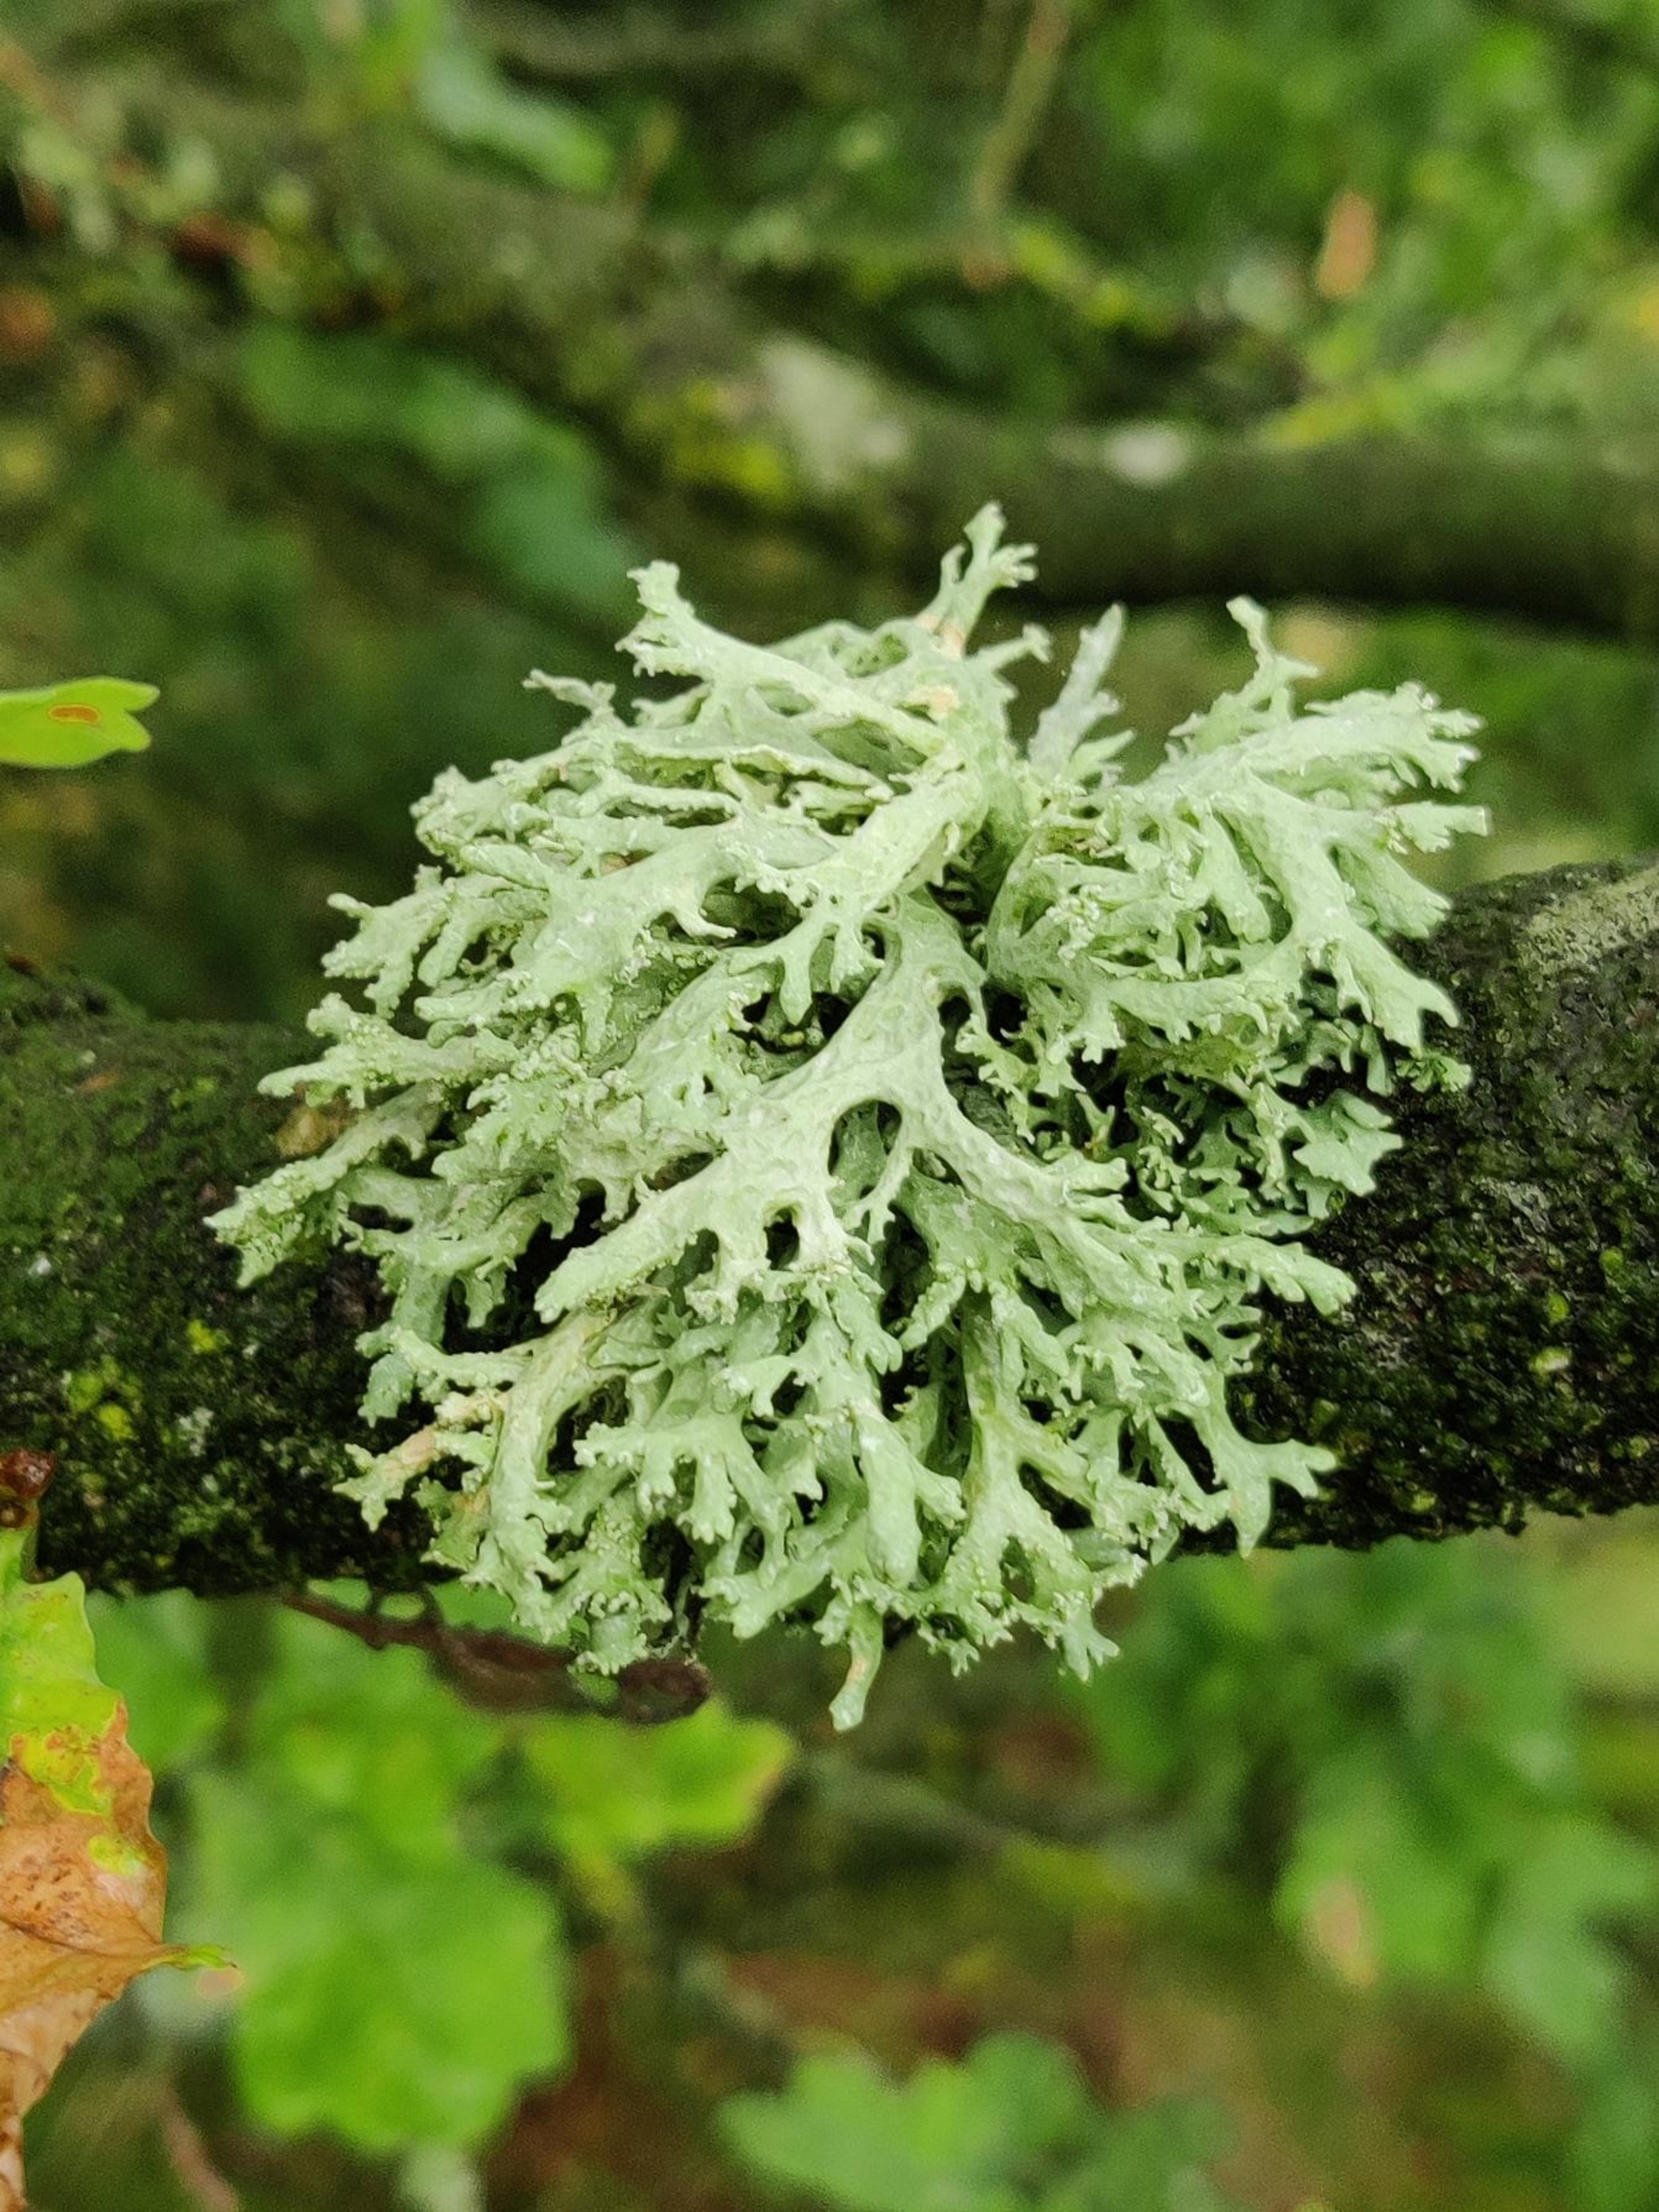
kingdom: Fungi
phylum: Ascomycota
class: Lecanoromycetes
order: Lecanorales
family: Parmeliaceae
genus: Evernia
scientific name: Evernia prunastri
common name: Almindelig slåenlav
